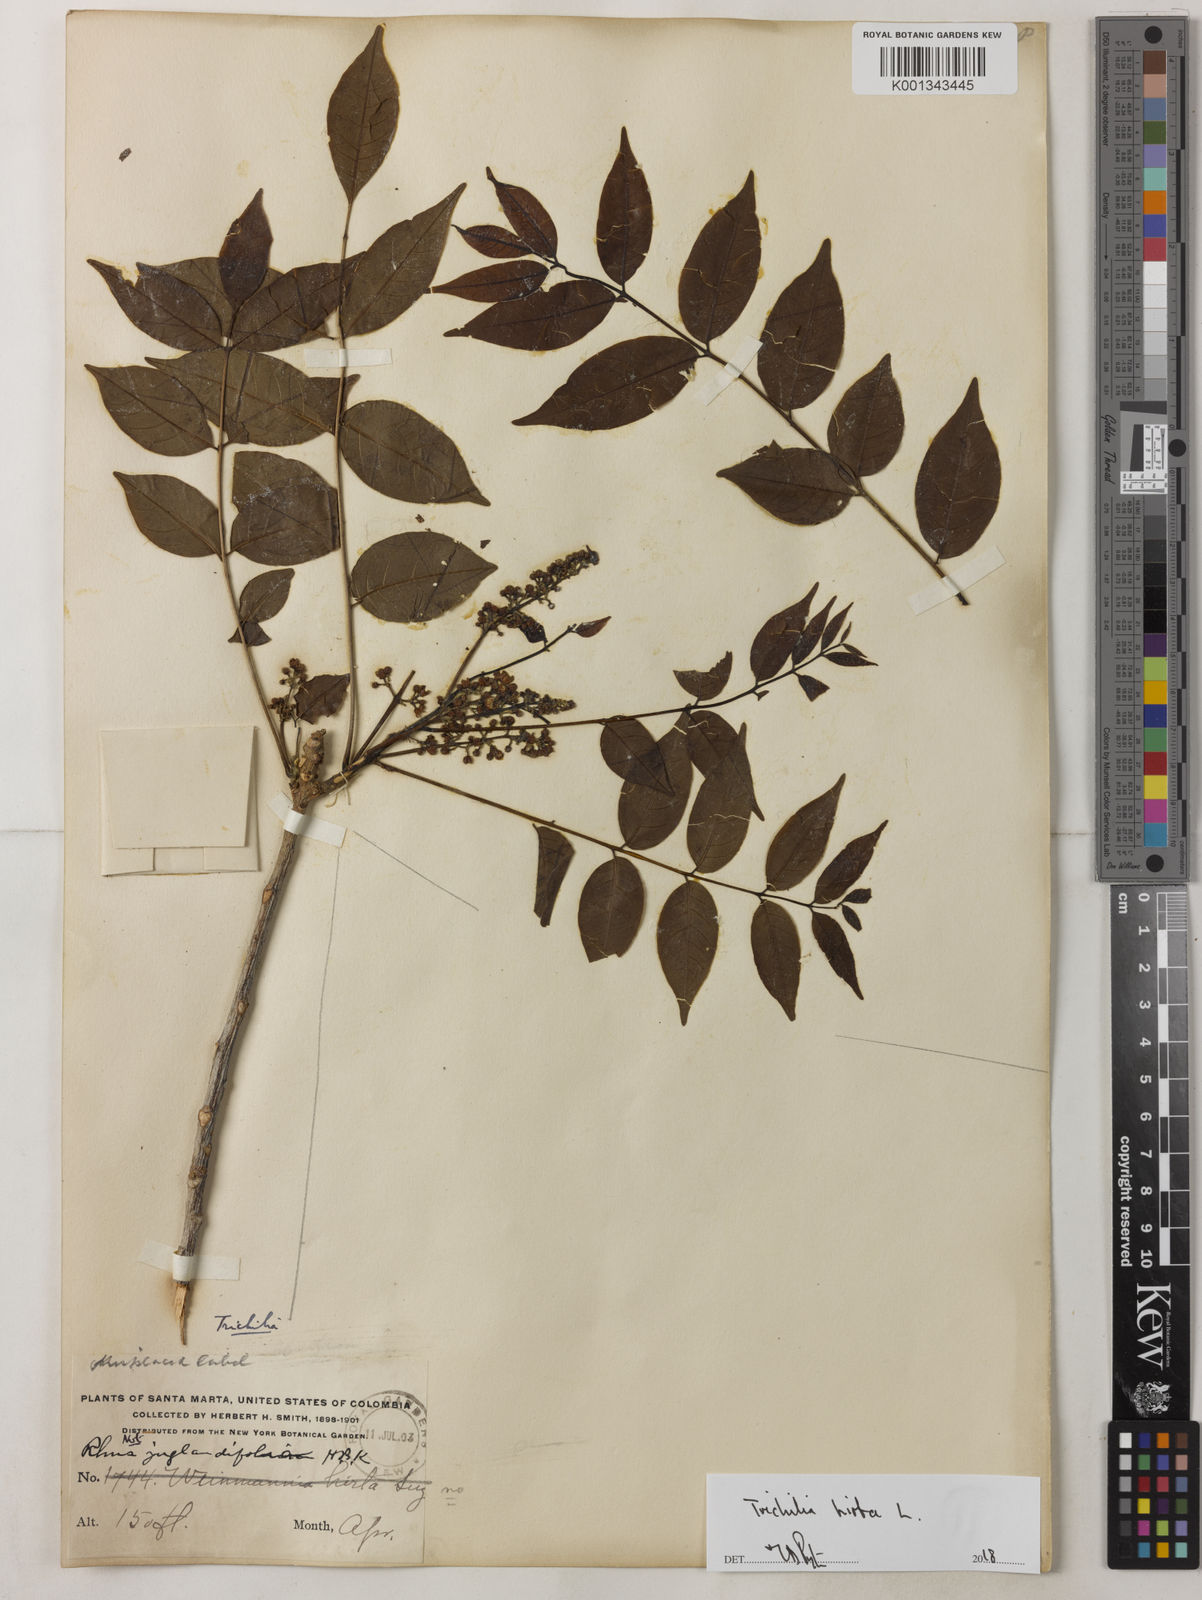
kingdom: Plantae
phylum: Tracheophyta
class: Magnoliopsida
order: Sapindales
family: Meliaceae
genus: Trichilia
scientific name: Trichilia hirta
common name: Red-cedar
